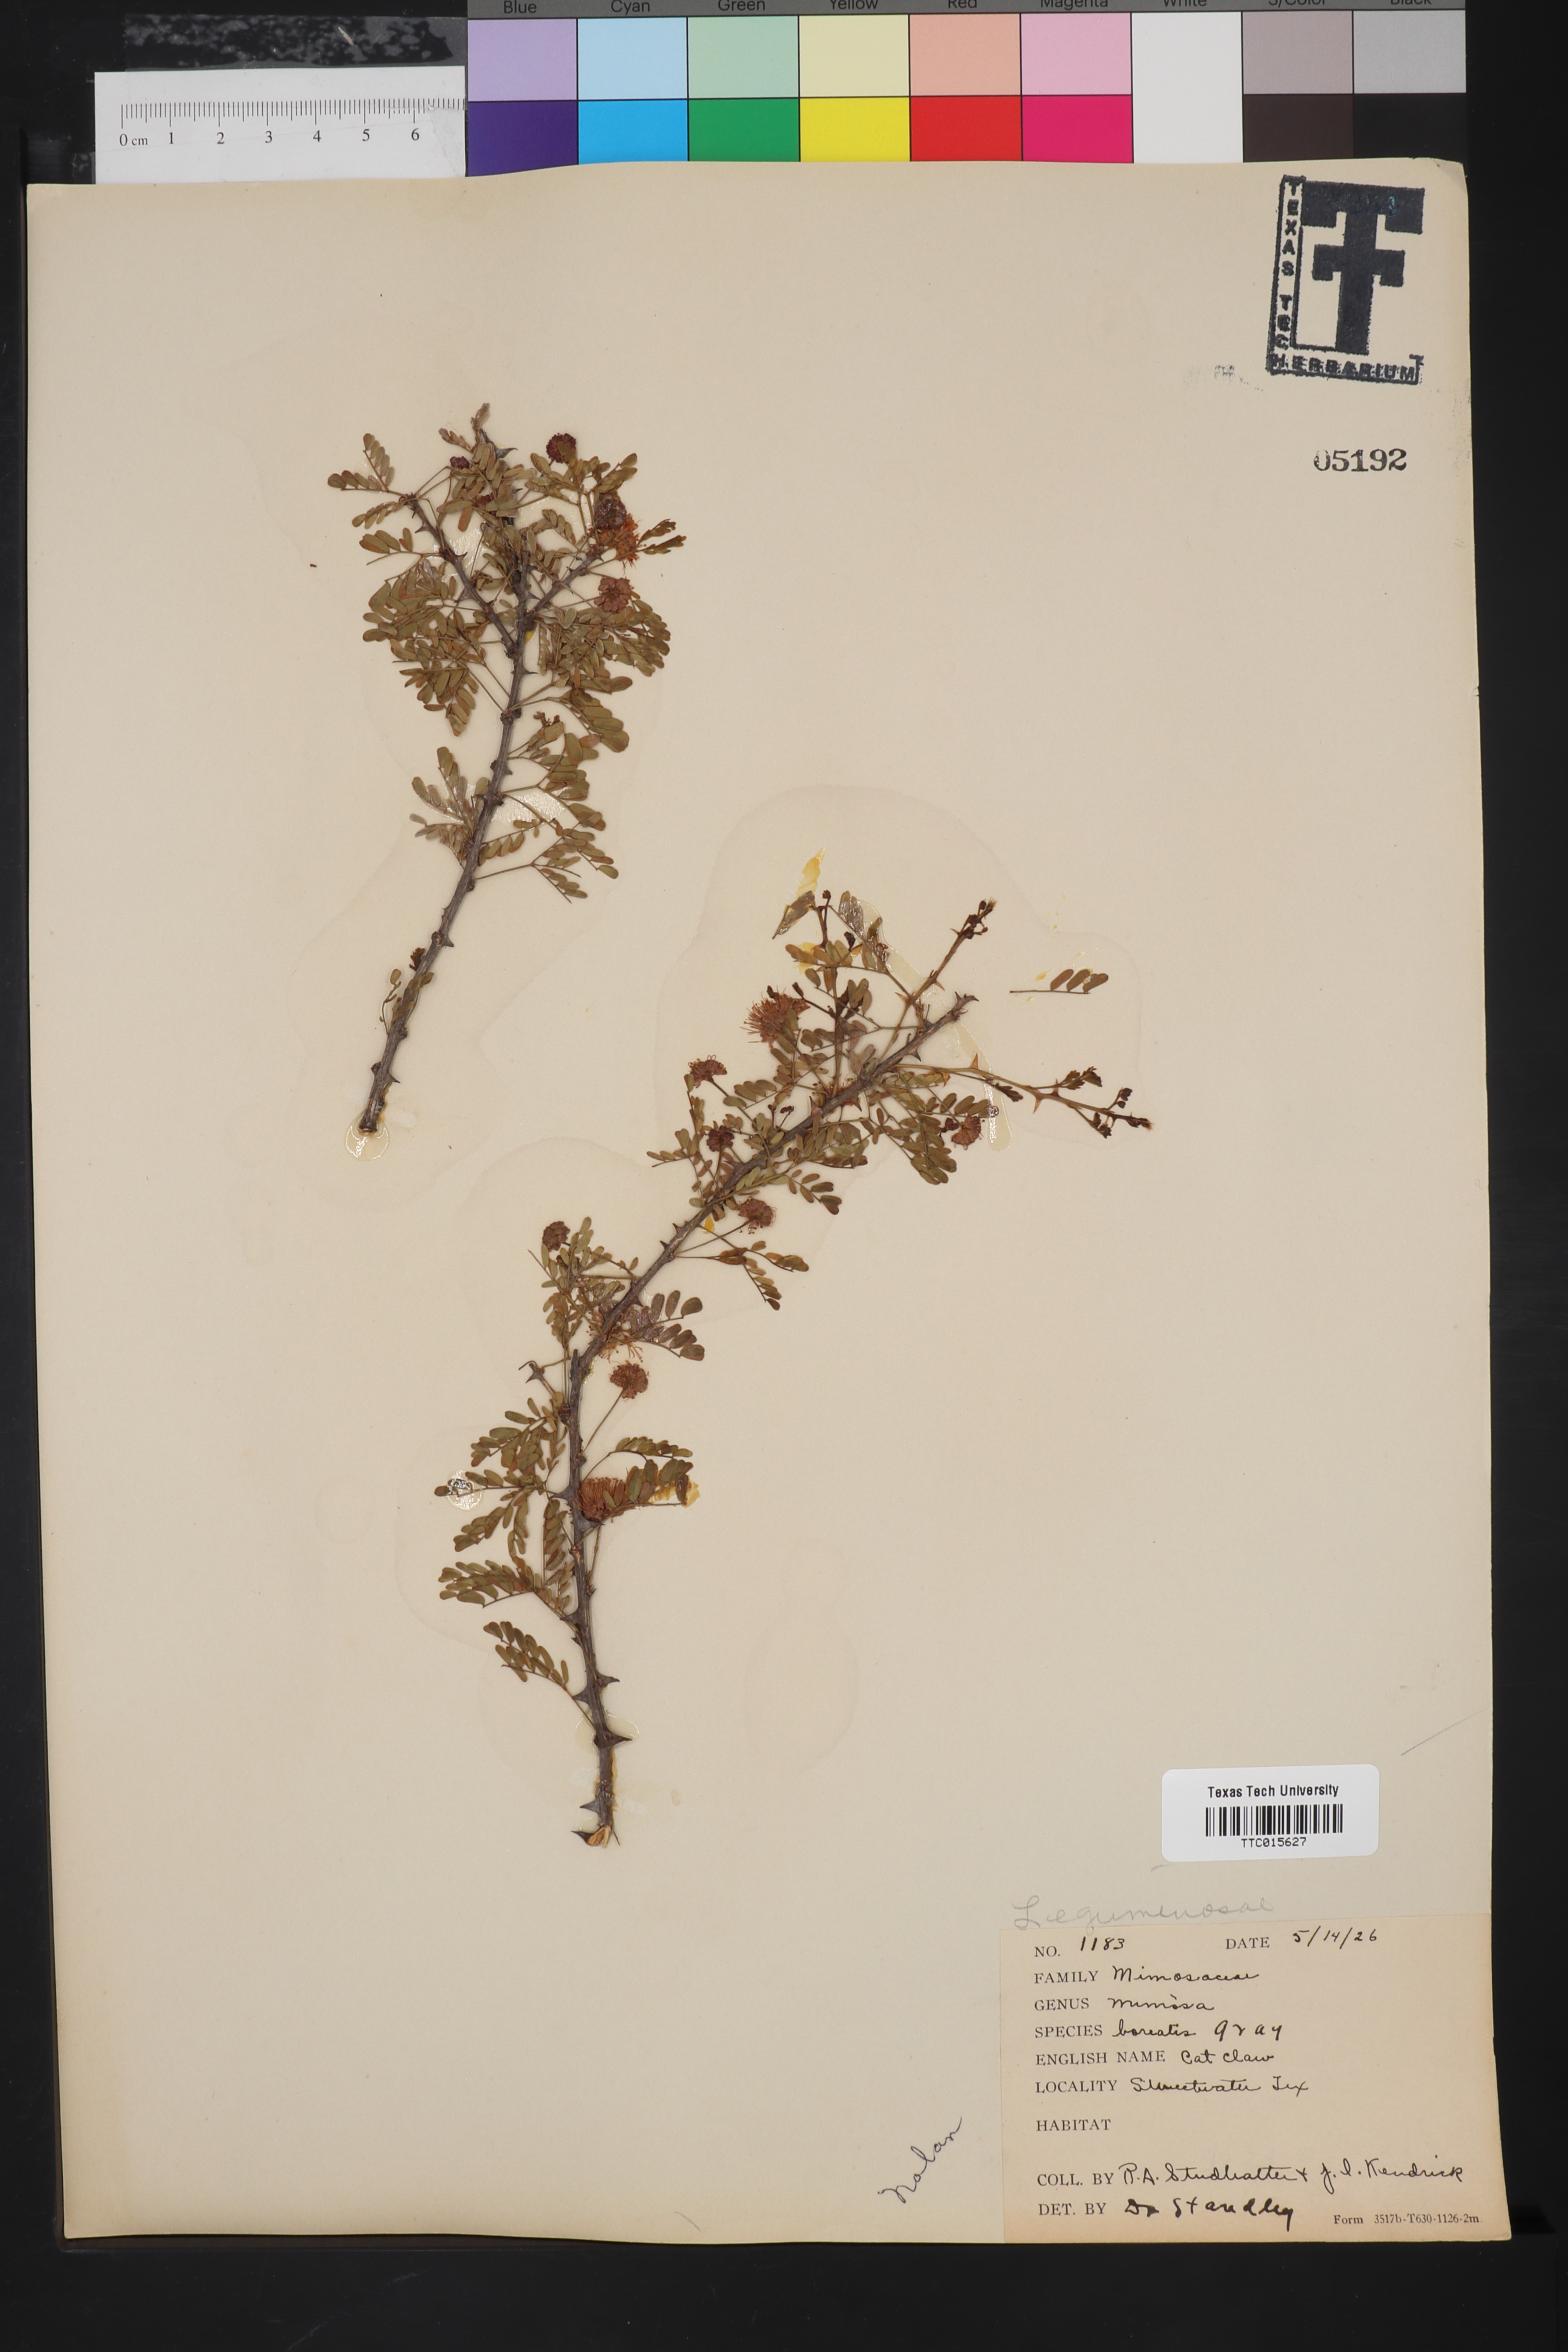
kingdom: Plantae
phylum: Tracheophyta
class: Magnoliopsida
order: Fabales
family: Fabaceae
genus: Mimosa
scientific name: Mimosa borealis
